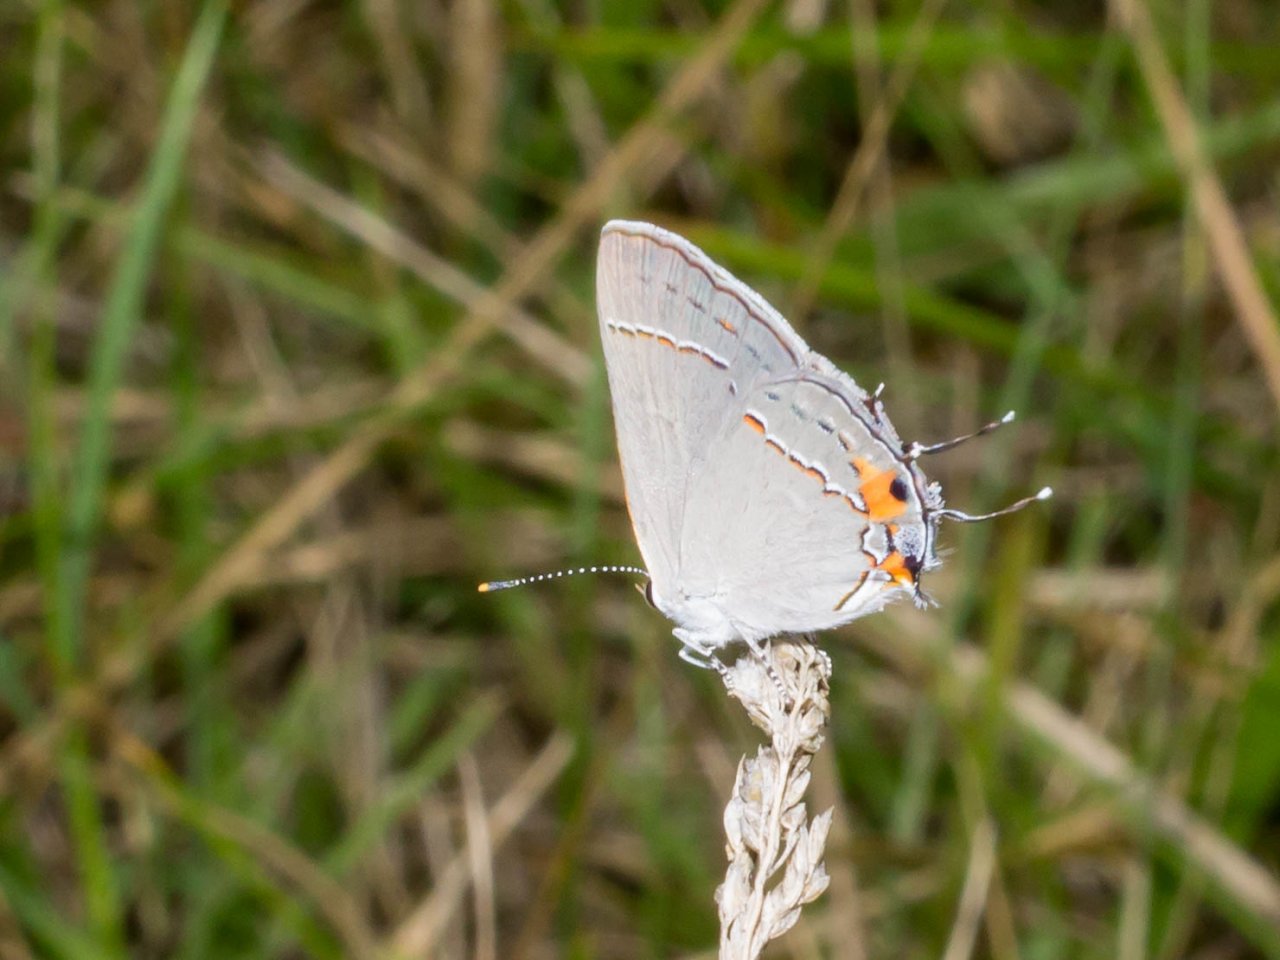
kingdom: Animalia
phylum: Arthropoda
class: Insecta
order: Lepidoptera
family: Lycaenidae
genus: Strymon
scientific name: Strymon melinus
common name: Gray Hairstreak
